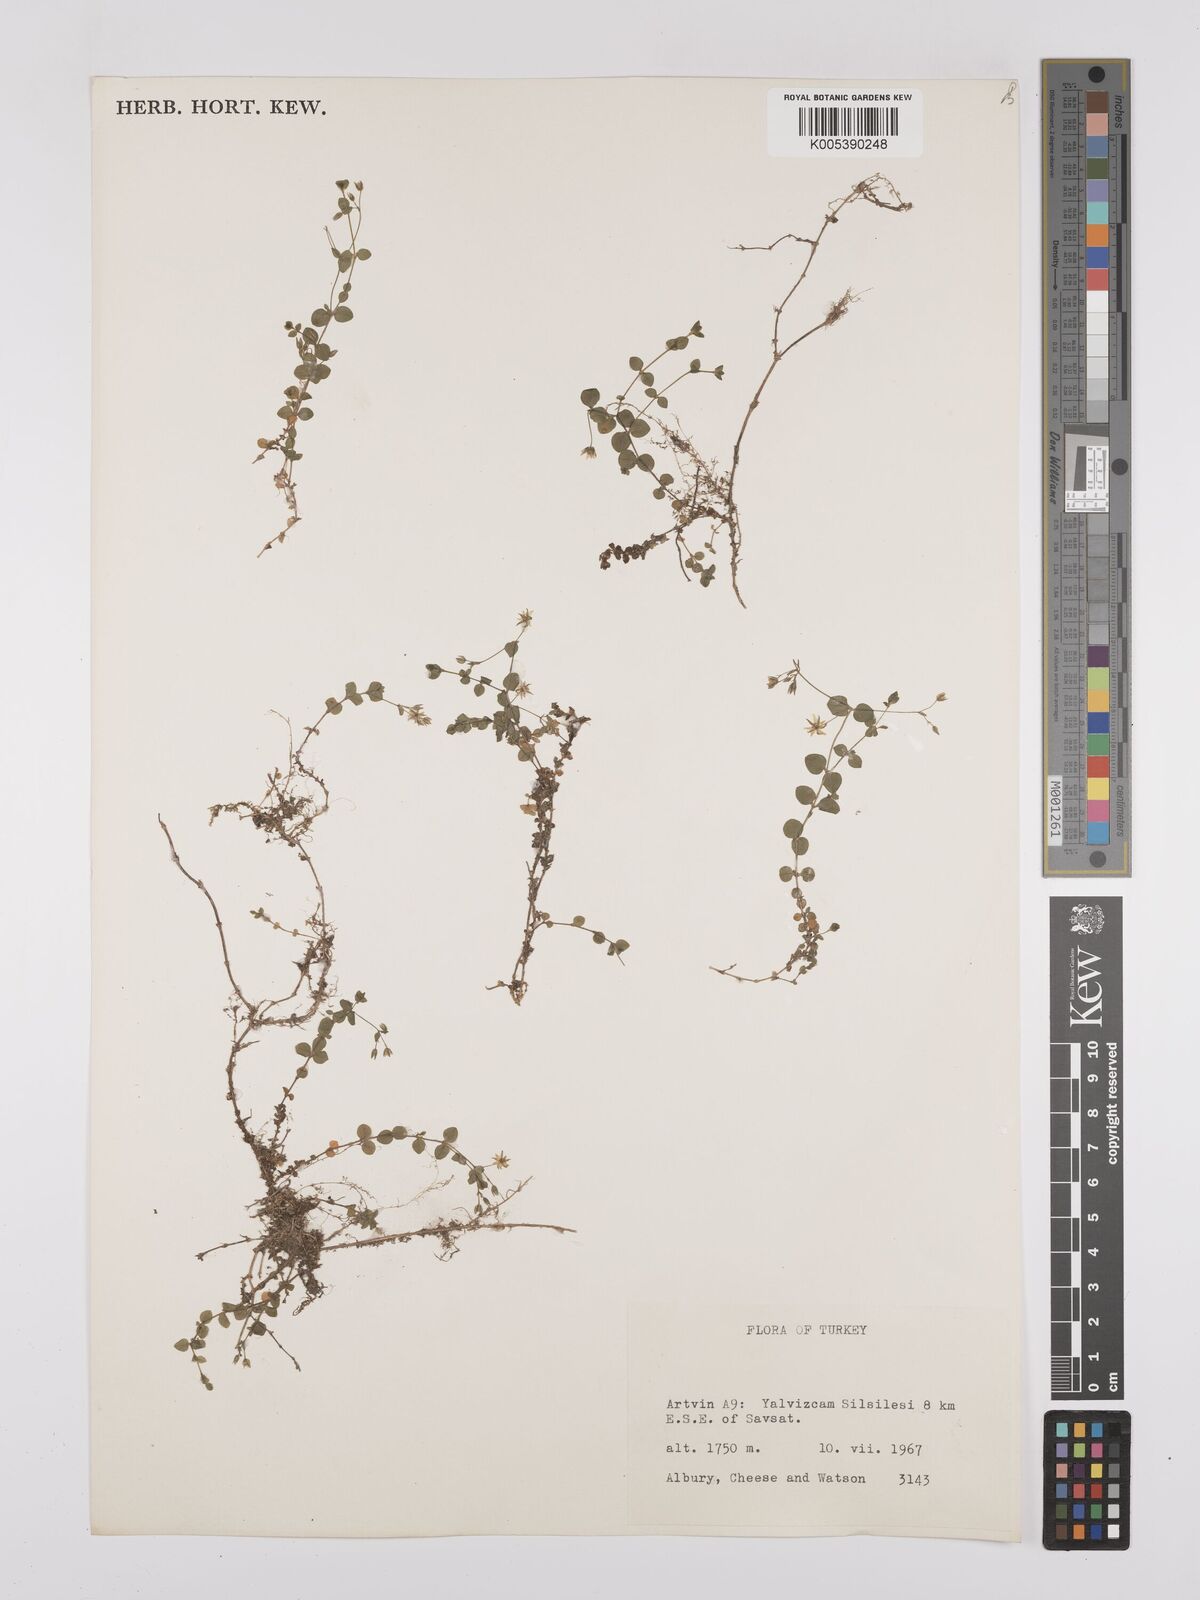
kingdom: Plantae
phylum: Tracheophyta
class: Magnoliopsida
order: Caryophyllales
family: Caryophyllaceae
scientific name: Caryophyllaceae
